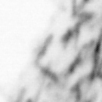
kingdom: Animalia
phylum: Chaetognatha
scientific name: Chaetognatha
